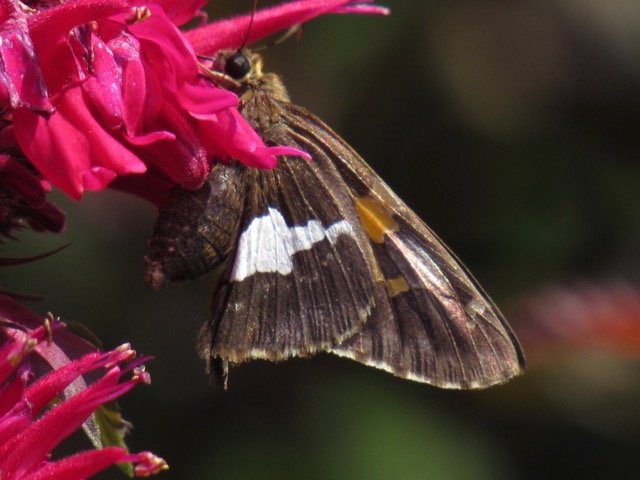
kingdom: Animalia
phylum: Arthropoda
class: Insecta
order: Lepidoptera
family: Hesperiidae
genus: Epargyreus
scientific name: Epargyreus clarus
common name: Silver-spotted Skipper
